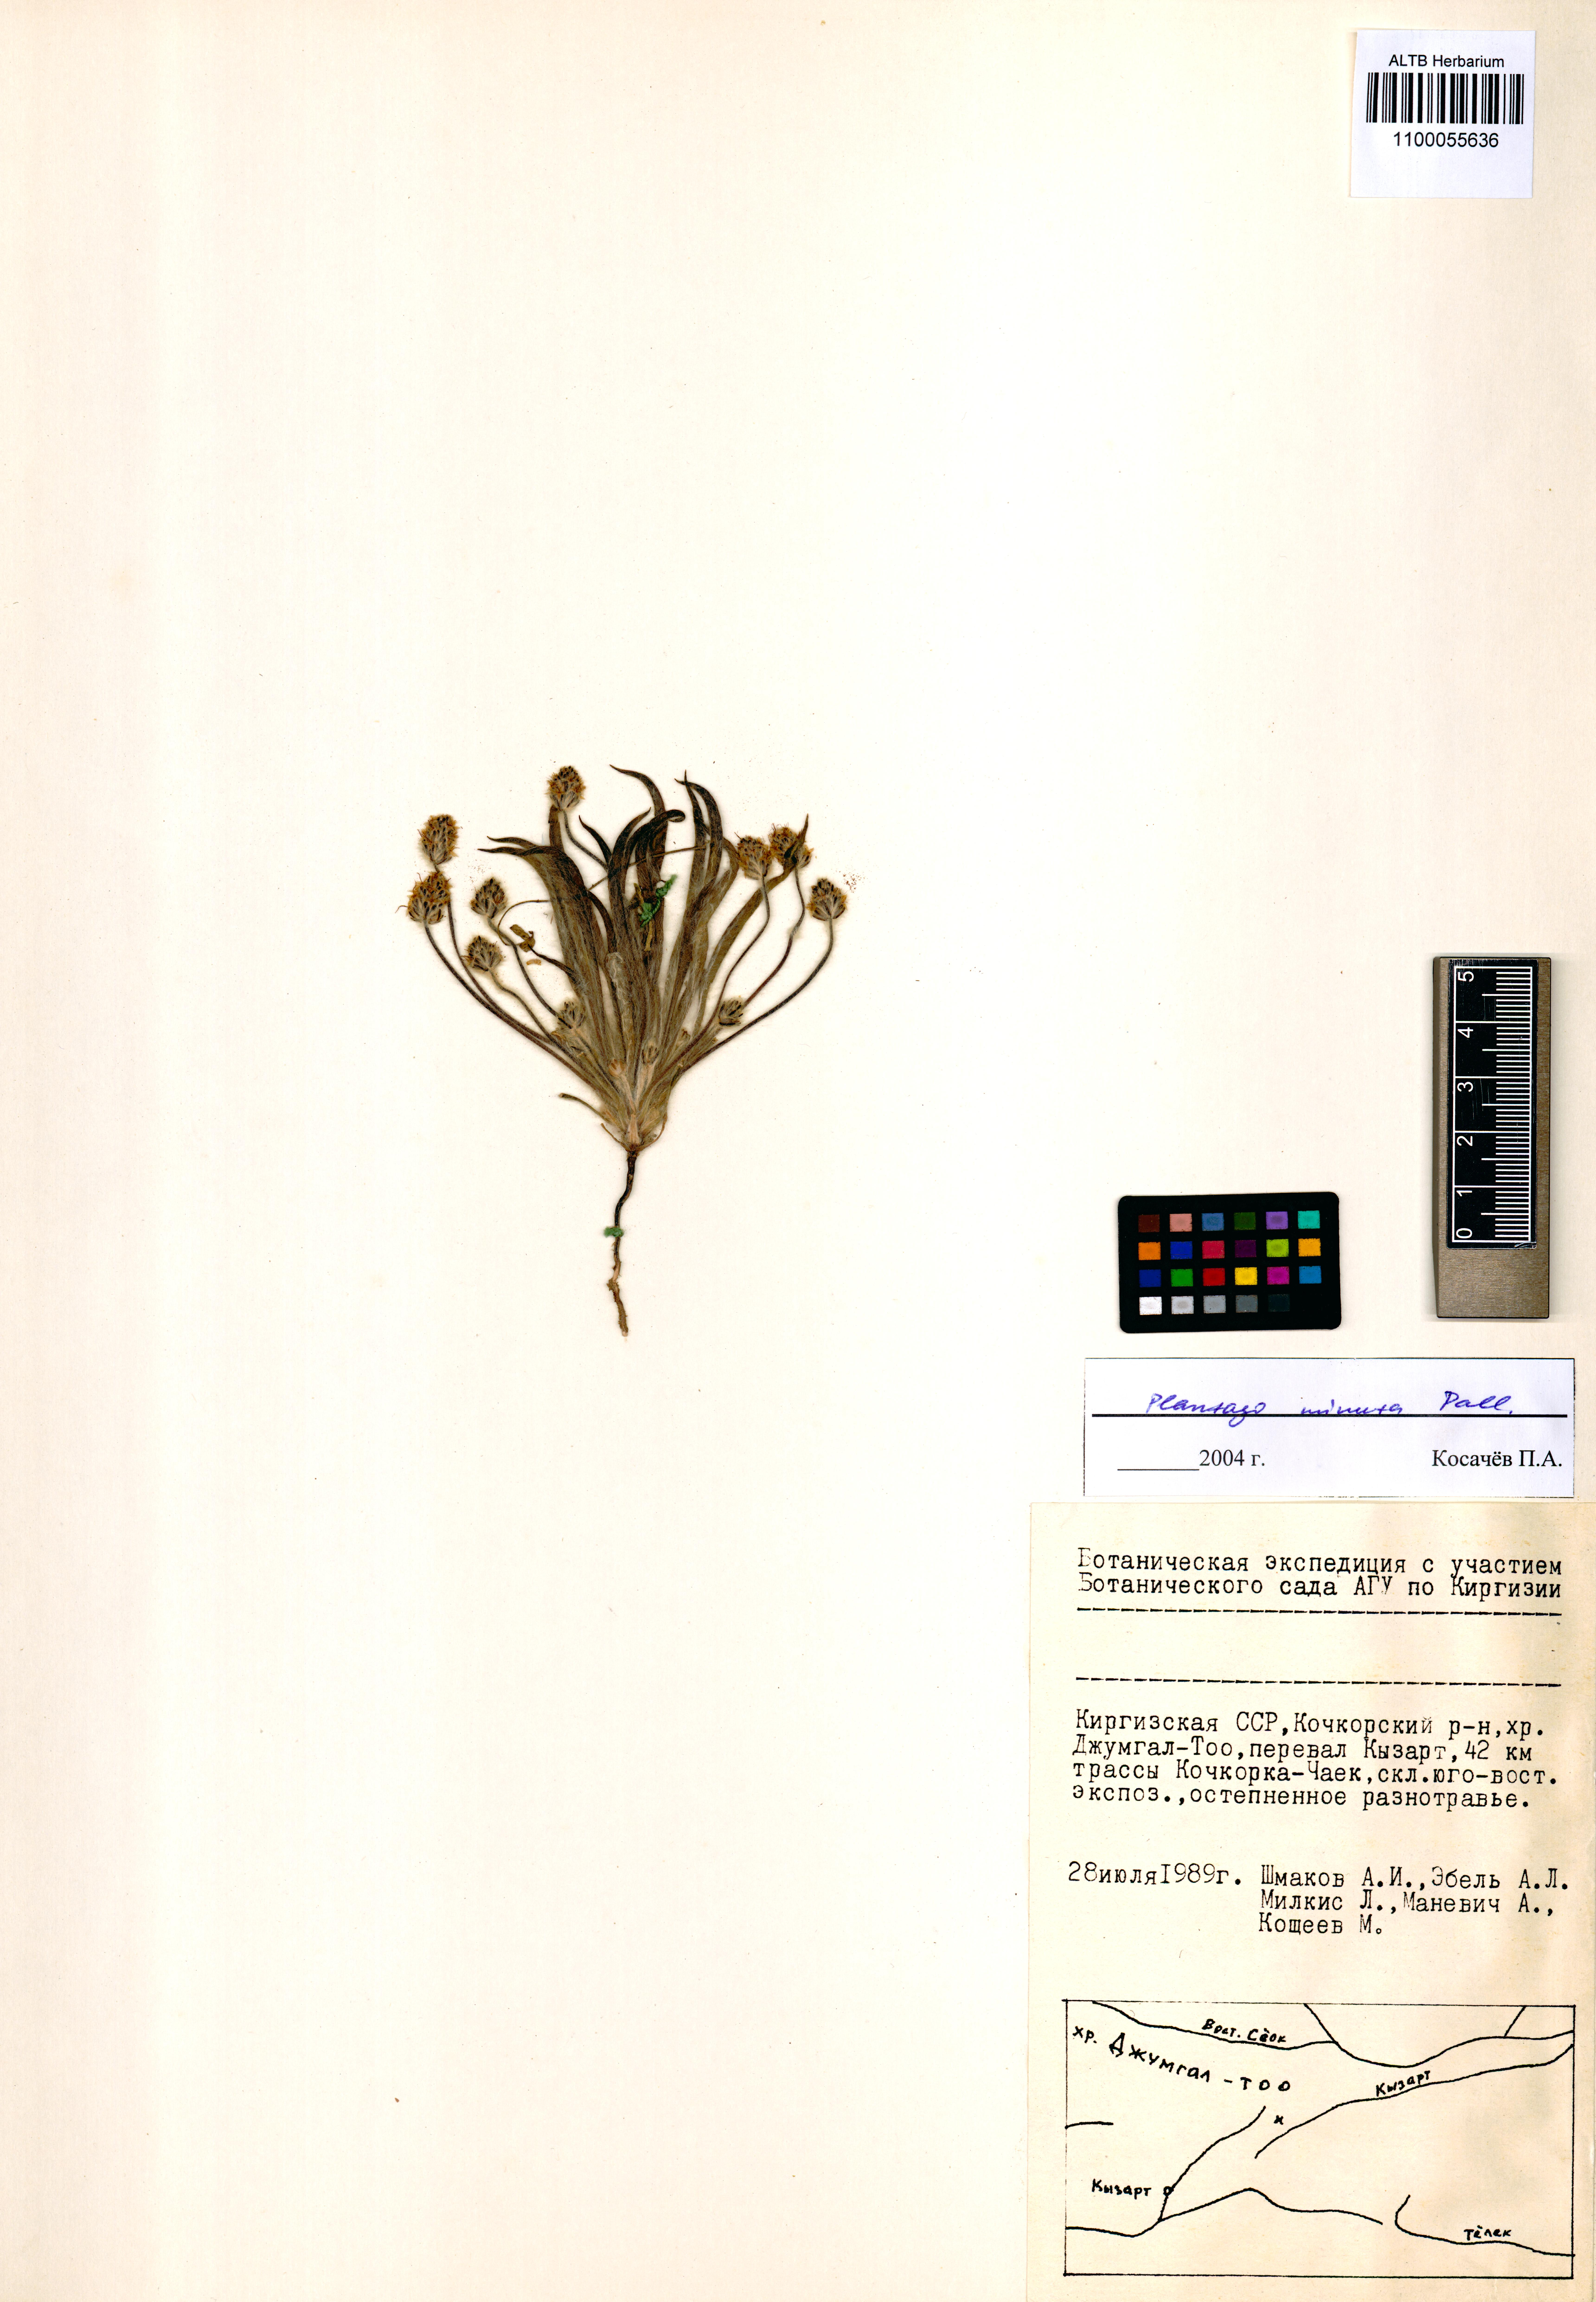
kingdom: Plantae
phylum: Tracheophyta
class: Magnoliopsida
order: Lamiales
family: Plantaginaceae
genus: Plantago
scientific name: Plantago minuta
